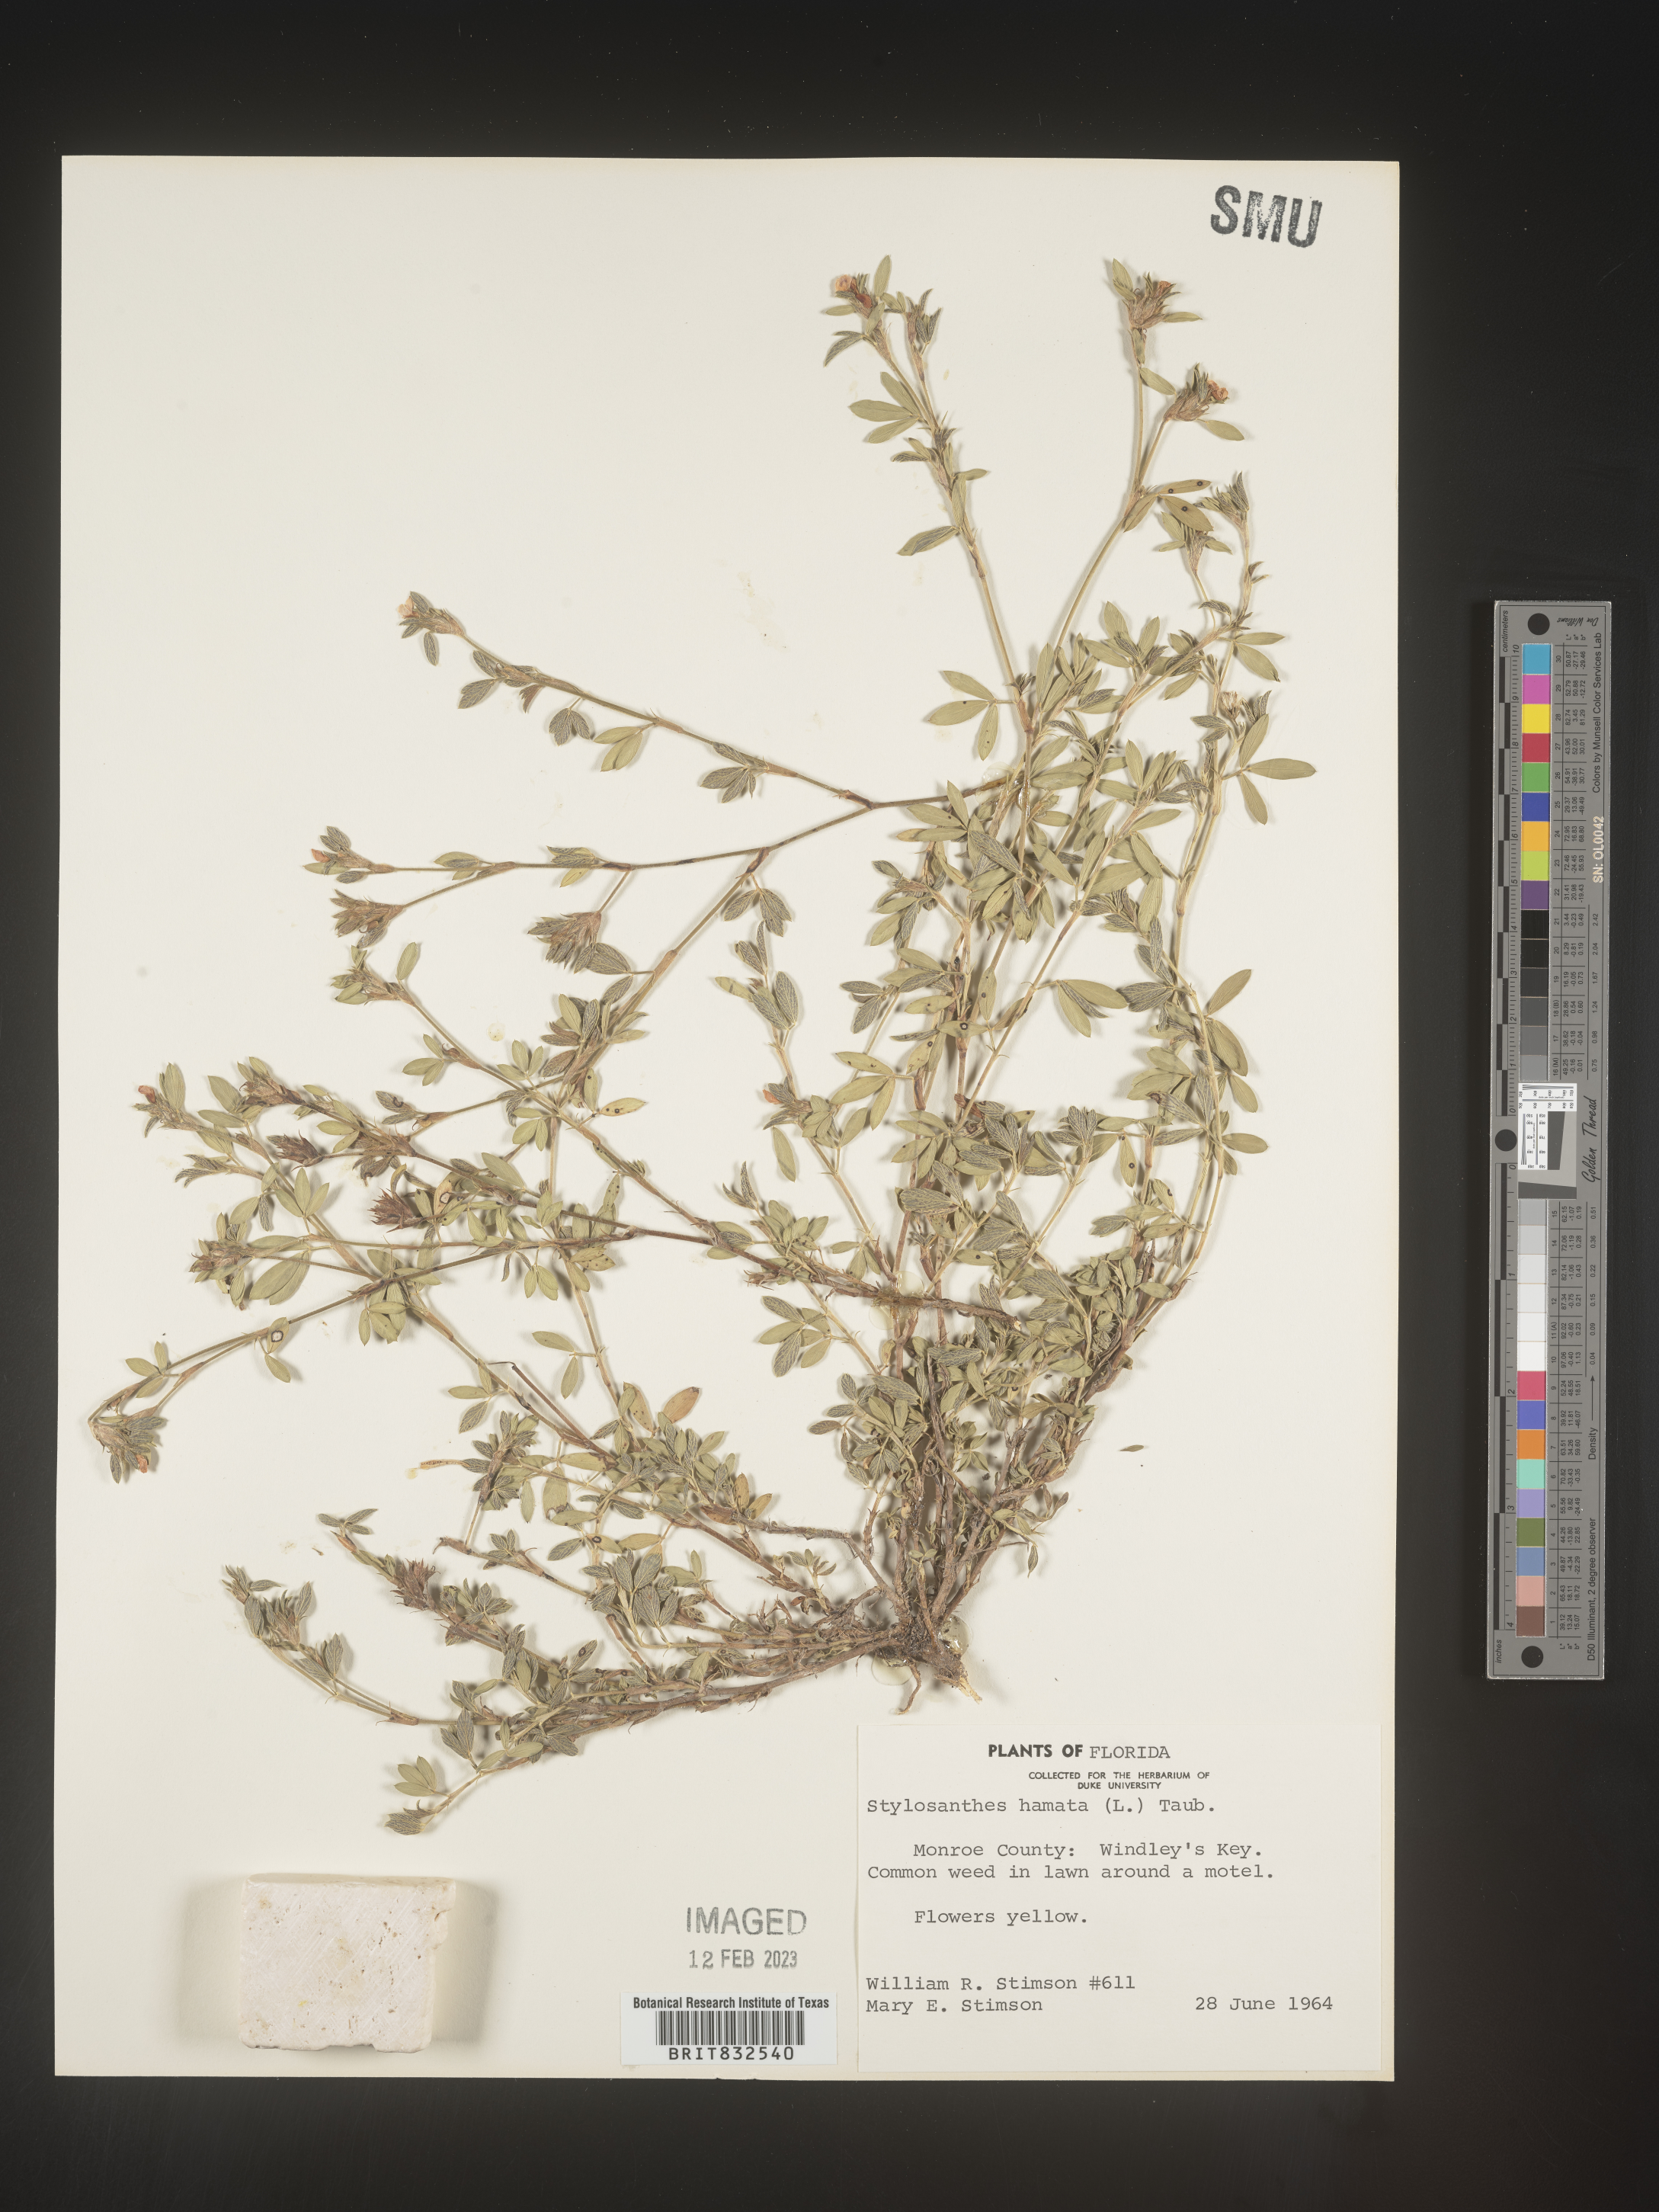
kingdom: Plantae
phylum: Tracheophyta
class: Magnoliopsida
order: Fabales
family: Fabaceae
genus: Stylosanthes
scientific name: Stylosanthes
